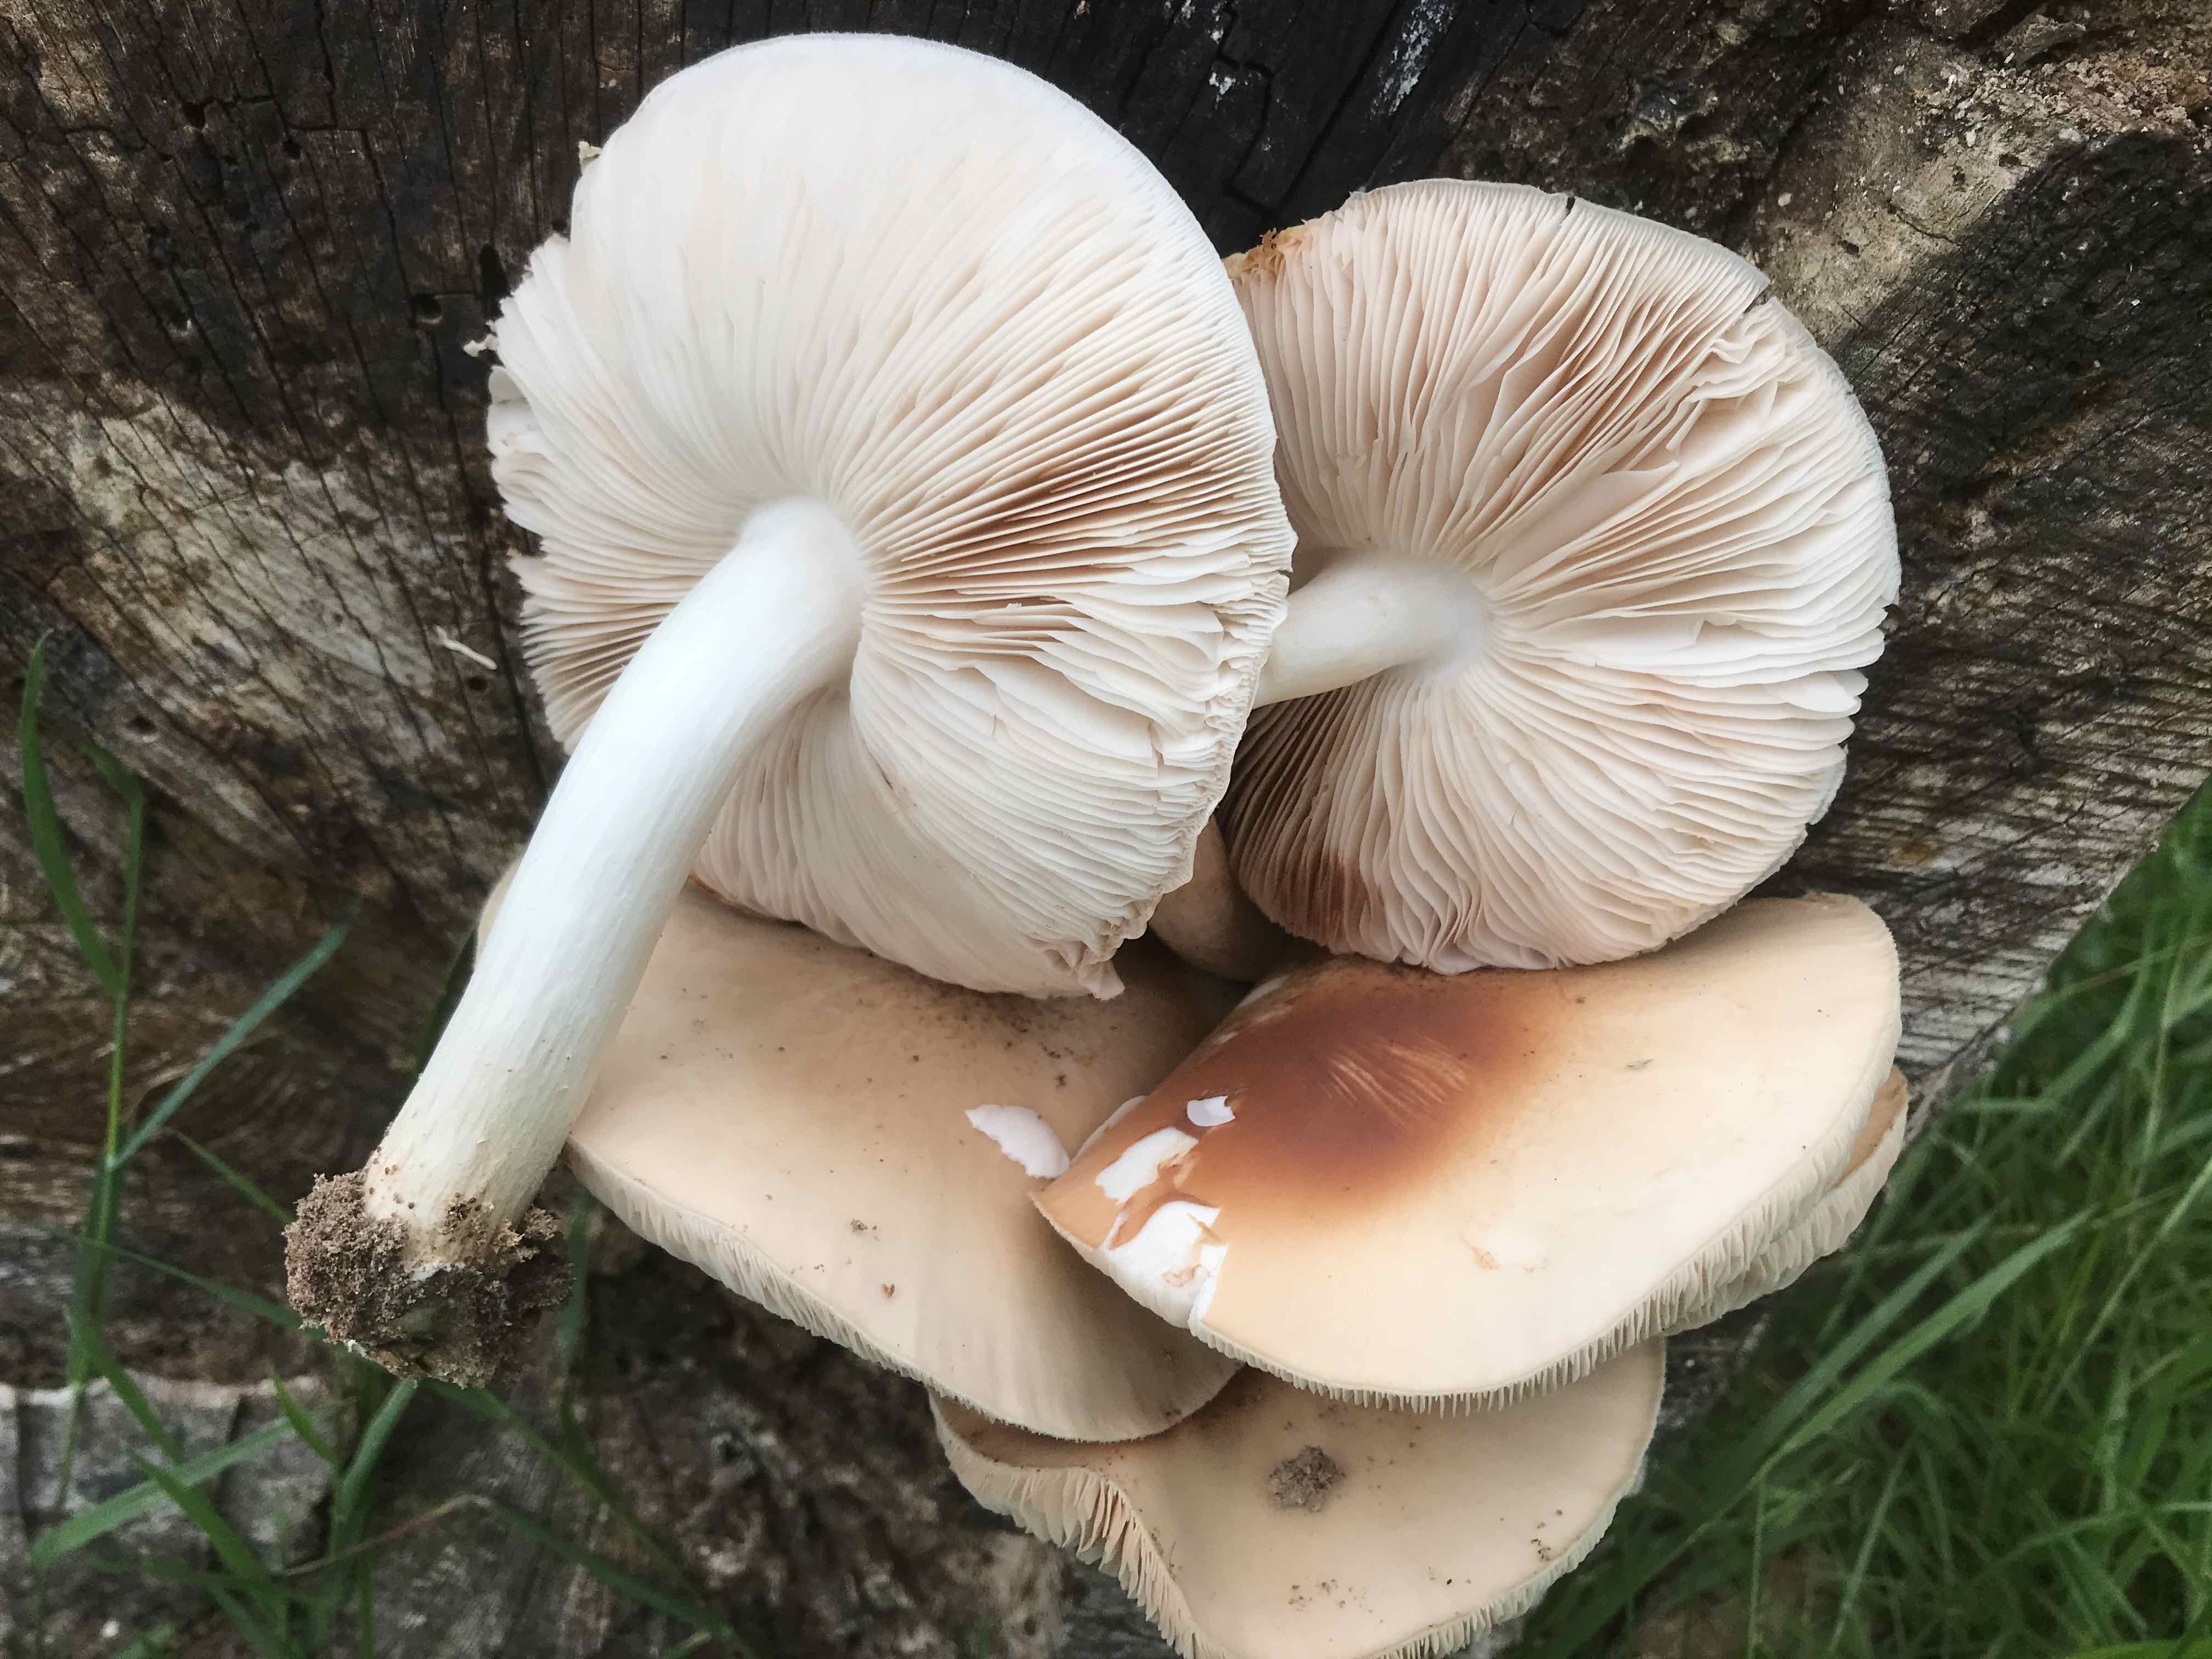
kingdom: Fungi
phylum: Basidiomycota
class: Agaricomycetes
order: Agaricales
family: Pluteaceae
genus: Pluteus
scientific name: Pluteus
